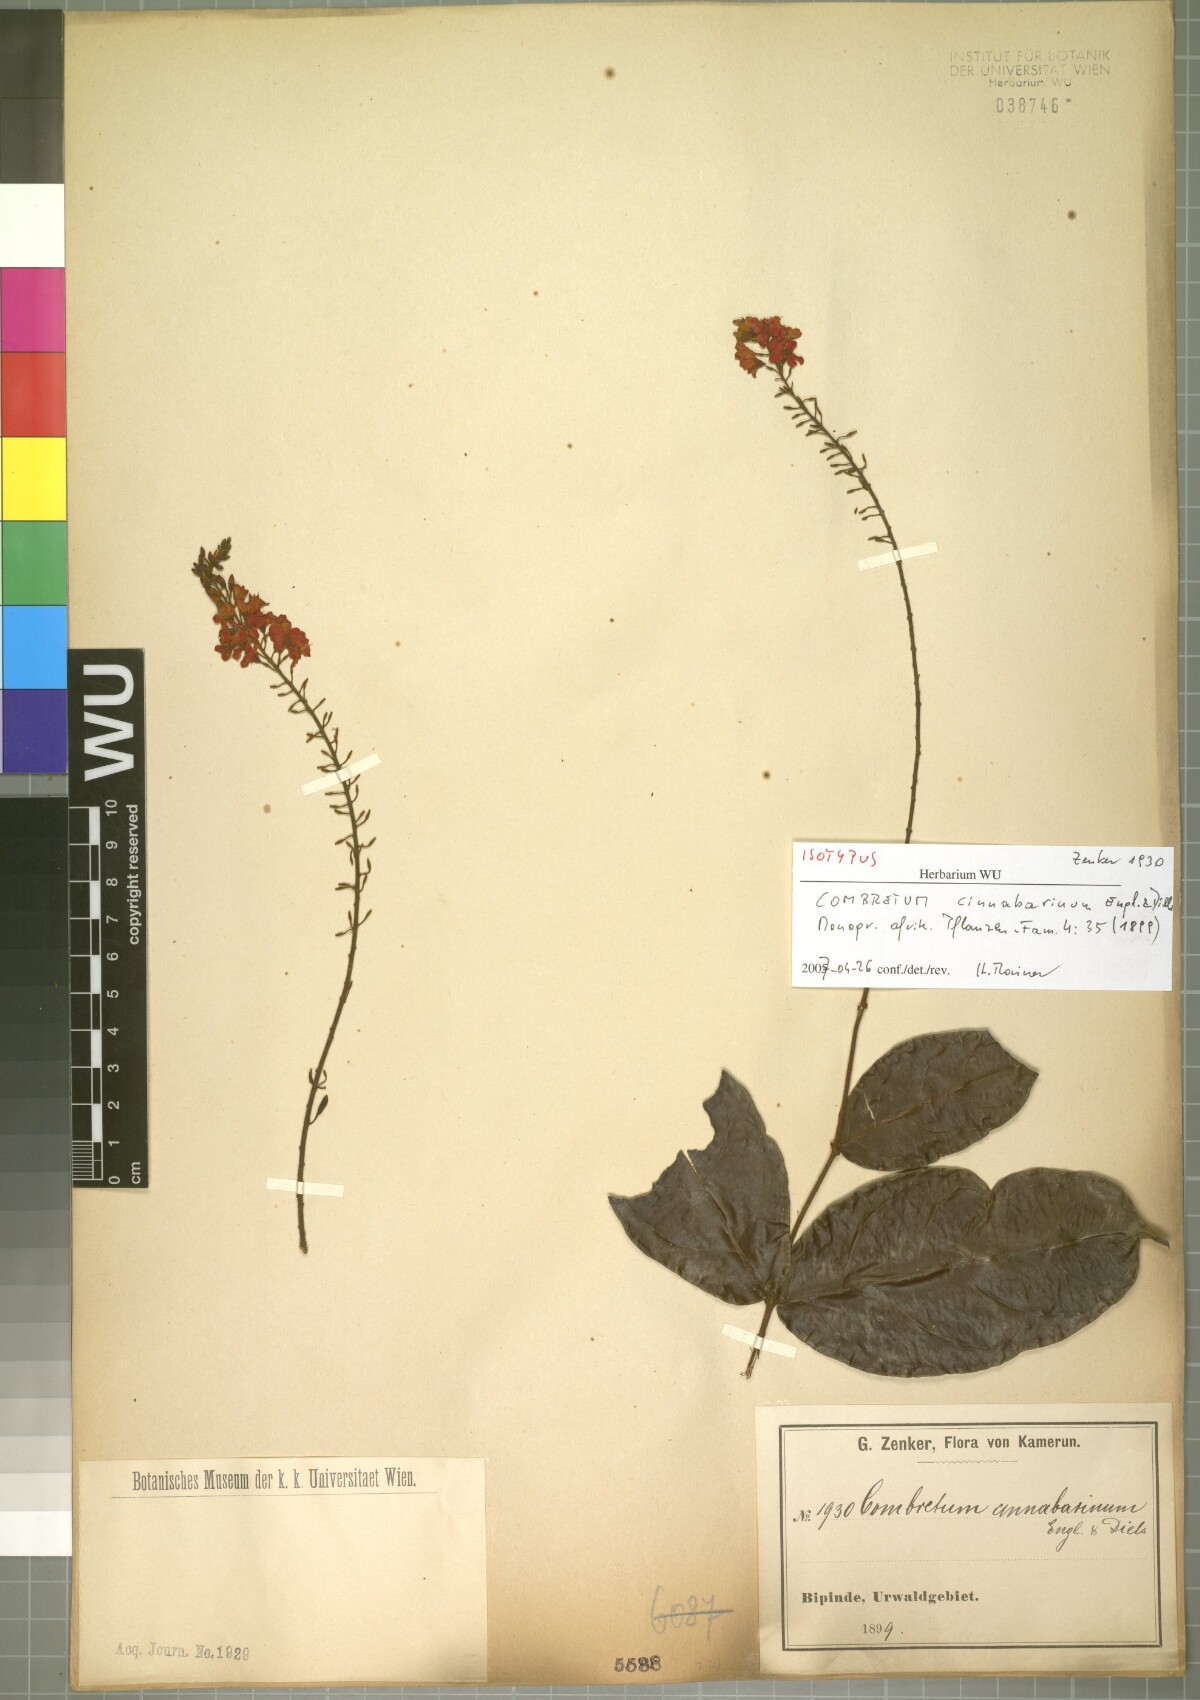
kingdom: Plantae
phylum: Tracheophyta
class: Magnoliopsida
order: Myrtales
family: Combretaceae
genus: Combretum
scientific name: Combretum cinnabarinum
